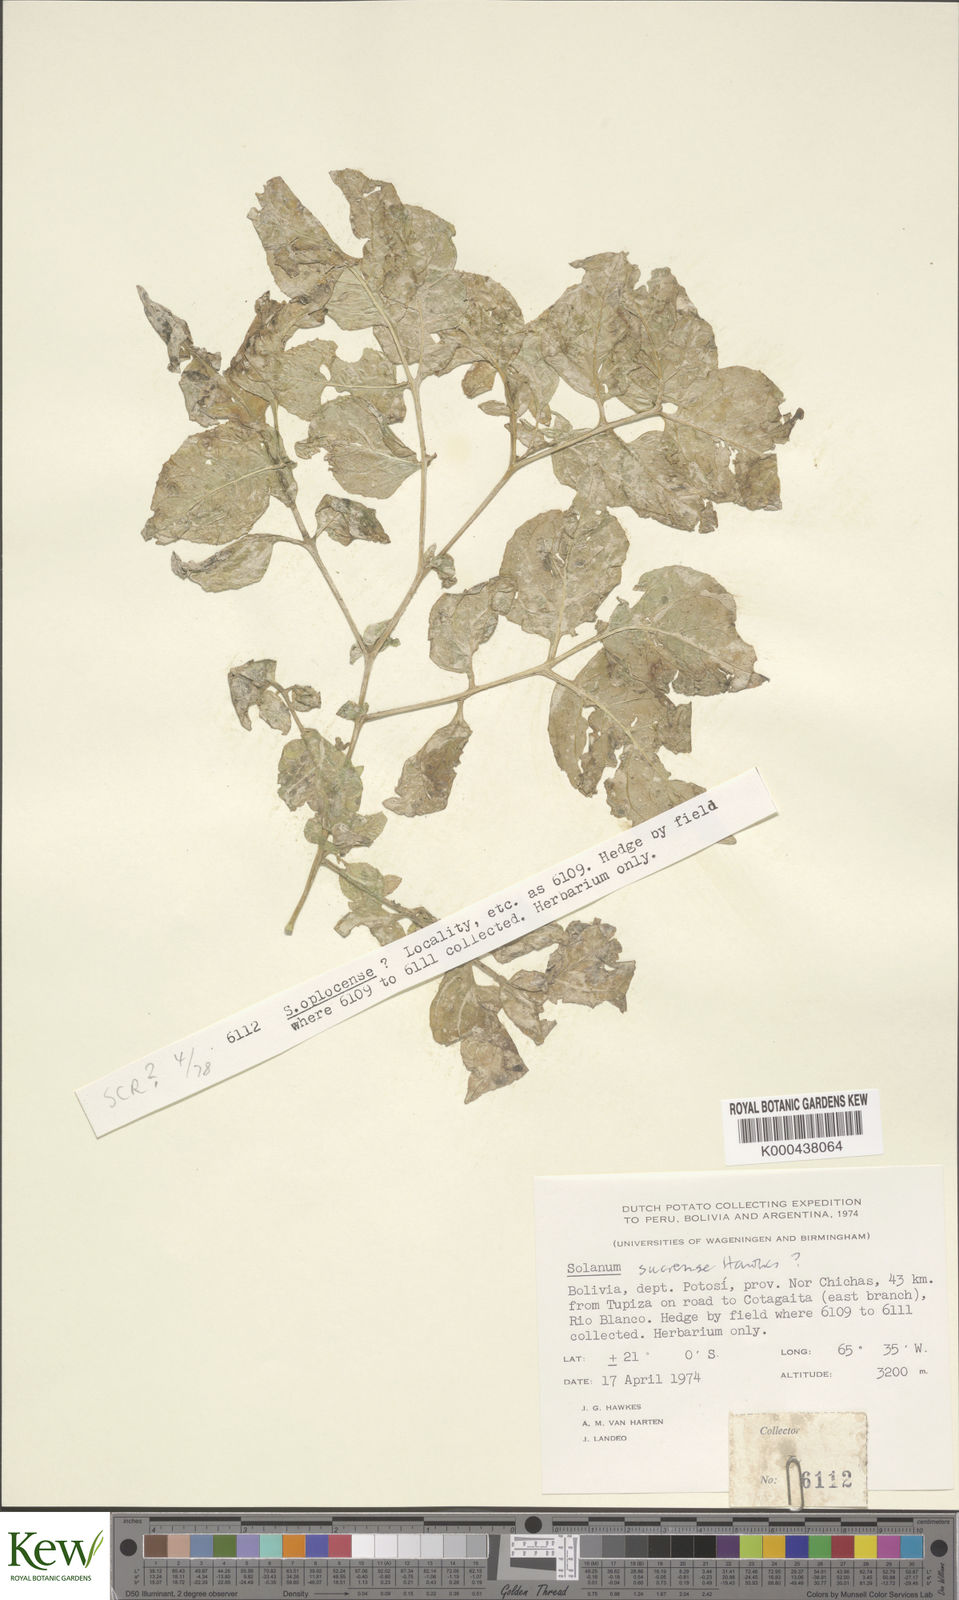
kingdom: Plantae
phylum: Tracheophyta
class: Magnoliopsida
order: Solanales
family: Solanaceae
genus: Solanum
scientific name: Solanum brevicaule
